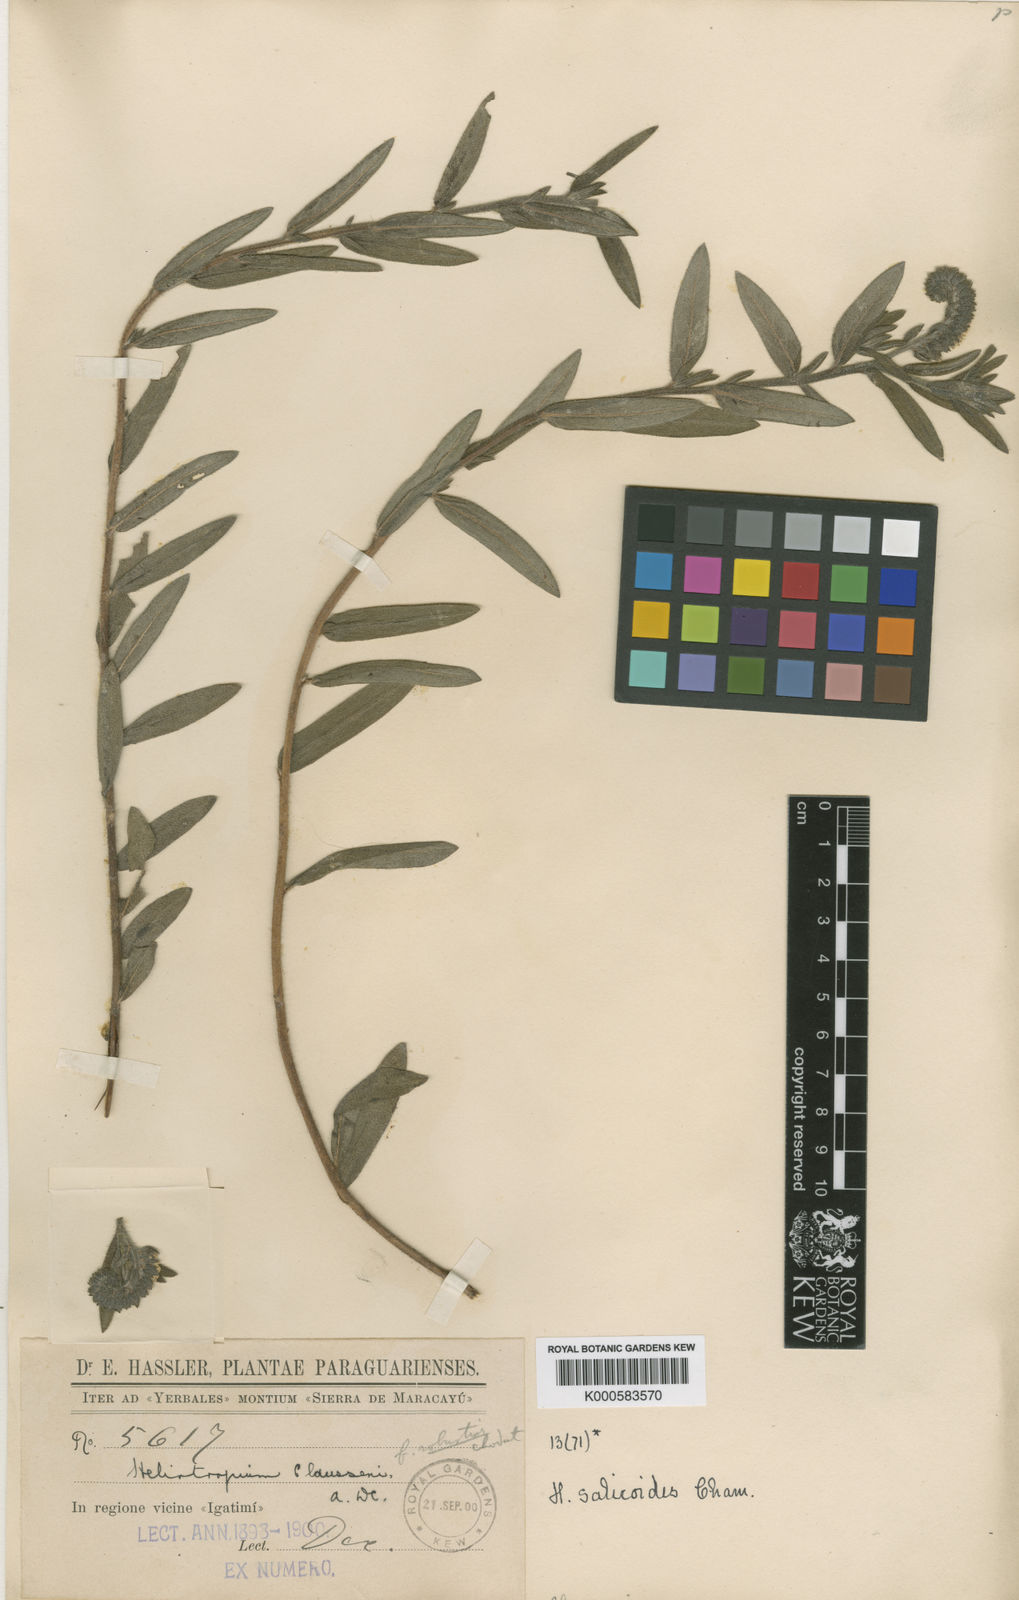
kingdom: Plantae
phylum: Tracheophyta
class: Magnoliopsida
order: Boraginales
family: Heliotropiaceae
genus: Heliotropium
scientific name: Heliotropium
